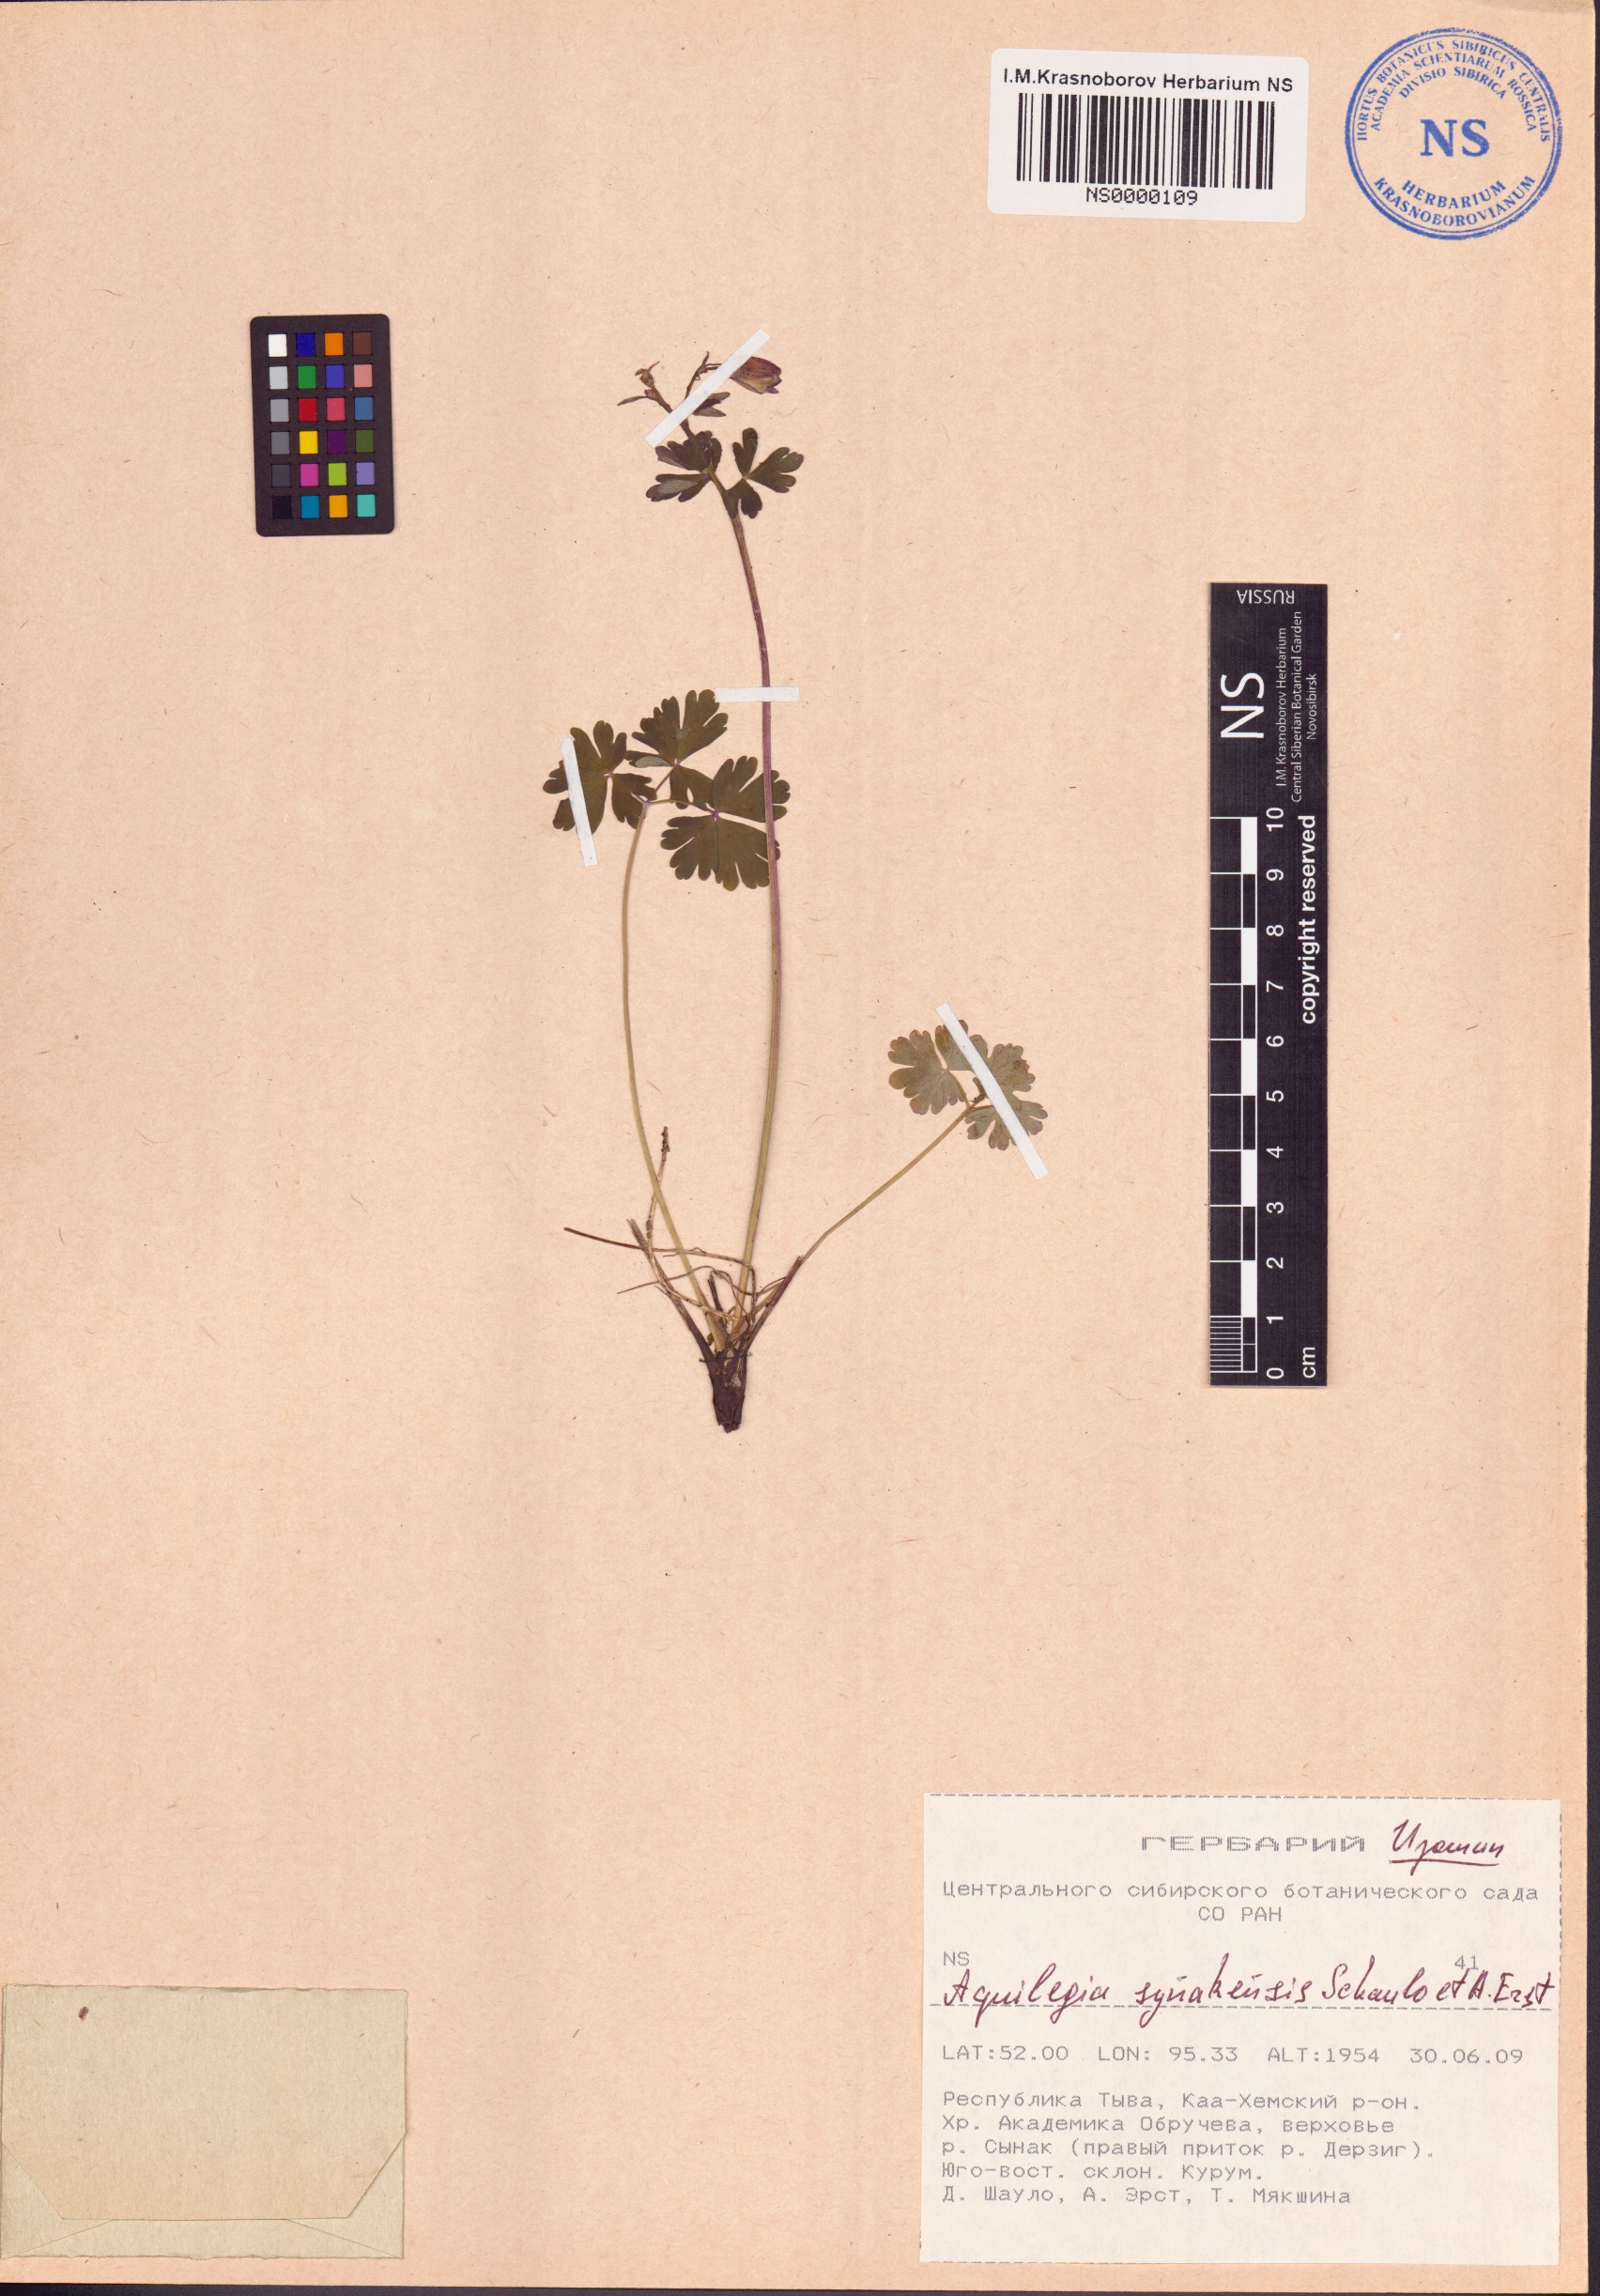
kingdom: Plantae
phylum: Tracheophyta
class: Magnoliopsida
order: Ranunculales
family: Ranunculaceae
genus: Aquilegia
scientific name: Aquilegia synakensis
